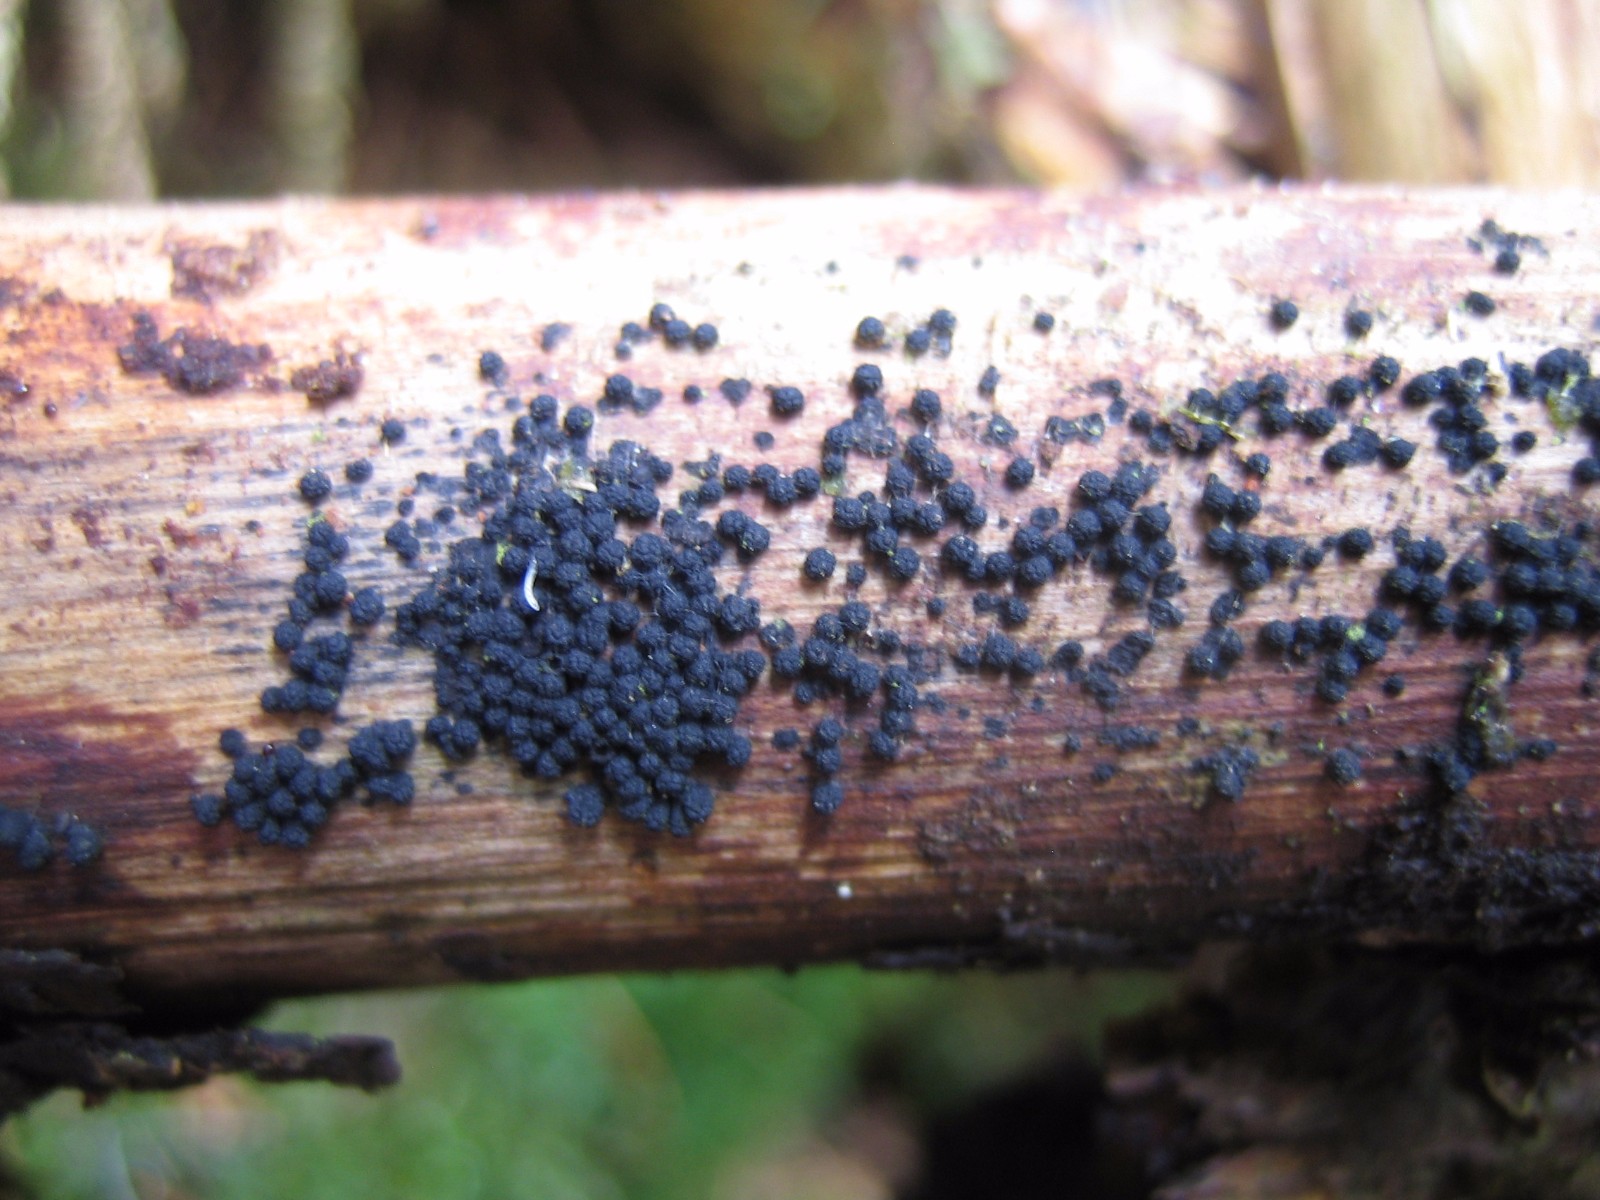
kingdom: Fungi
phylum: Ascomycota
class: Sordariomycetes
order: Coronophorales
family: Bertiaceae
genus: Bertia
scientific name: Bertia moriformis
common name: almindelig morbærkerne
